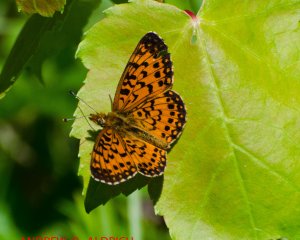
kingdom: Animalia
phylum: Arthropoda
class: Insecta
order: Lepidoptera
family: Nymphalidae
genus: Boloria
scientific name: Boloria selene
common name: Silver-bordered Fritillary
